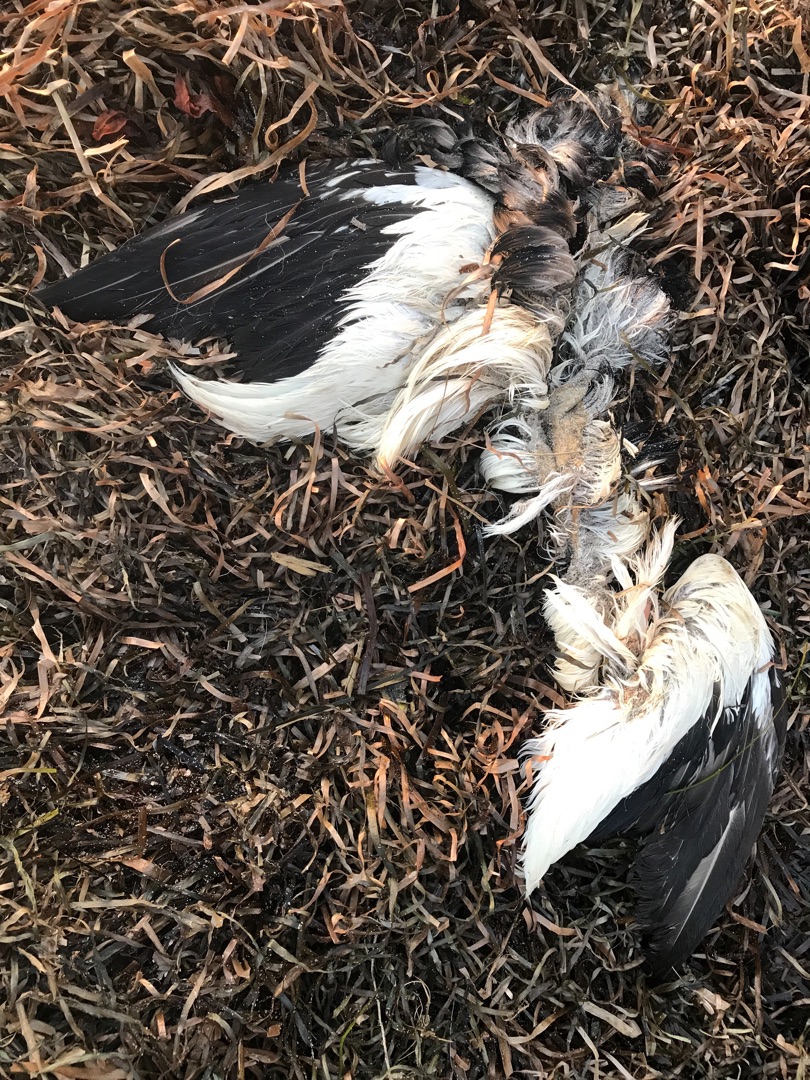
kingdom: Animalia
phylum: Chordata
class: Aves
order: Suliformes
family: Sulidae
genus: Morus
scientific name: Morus bassanus
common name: Sule
